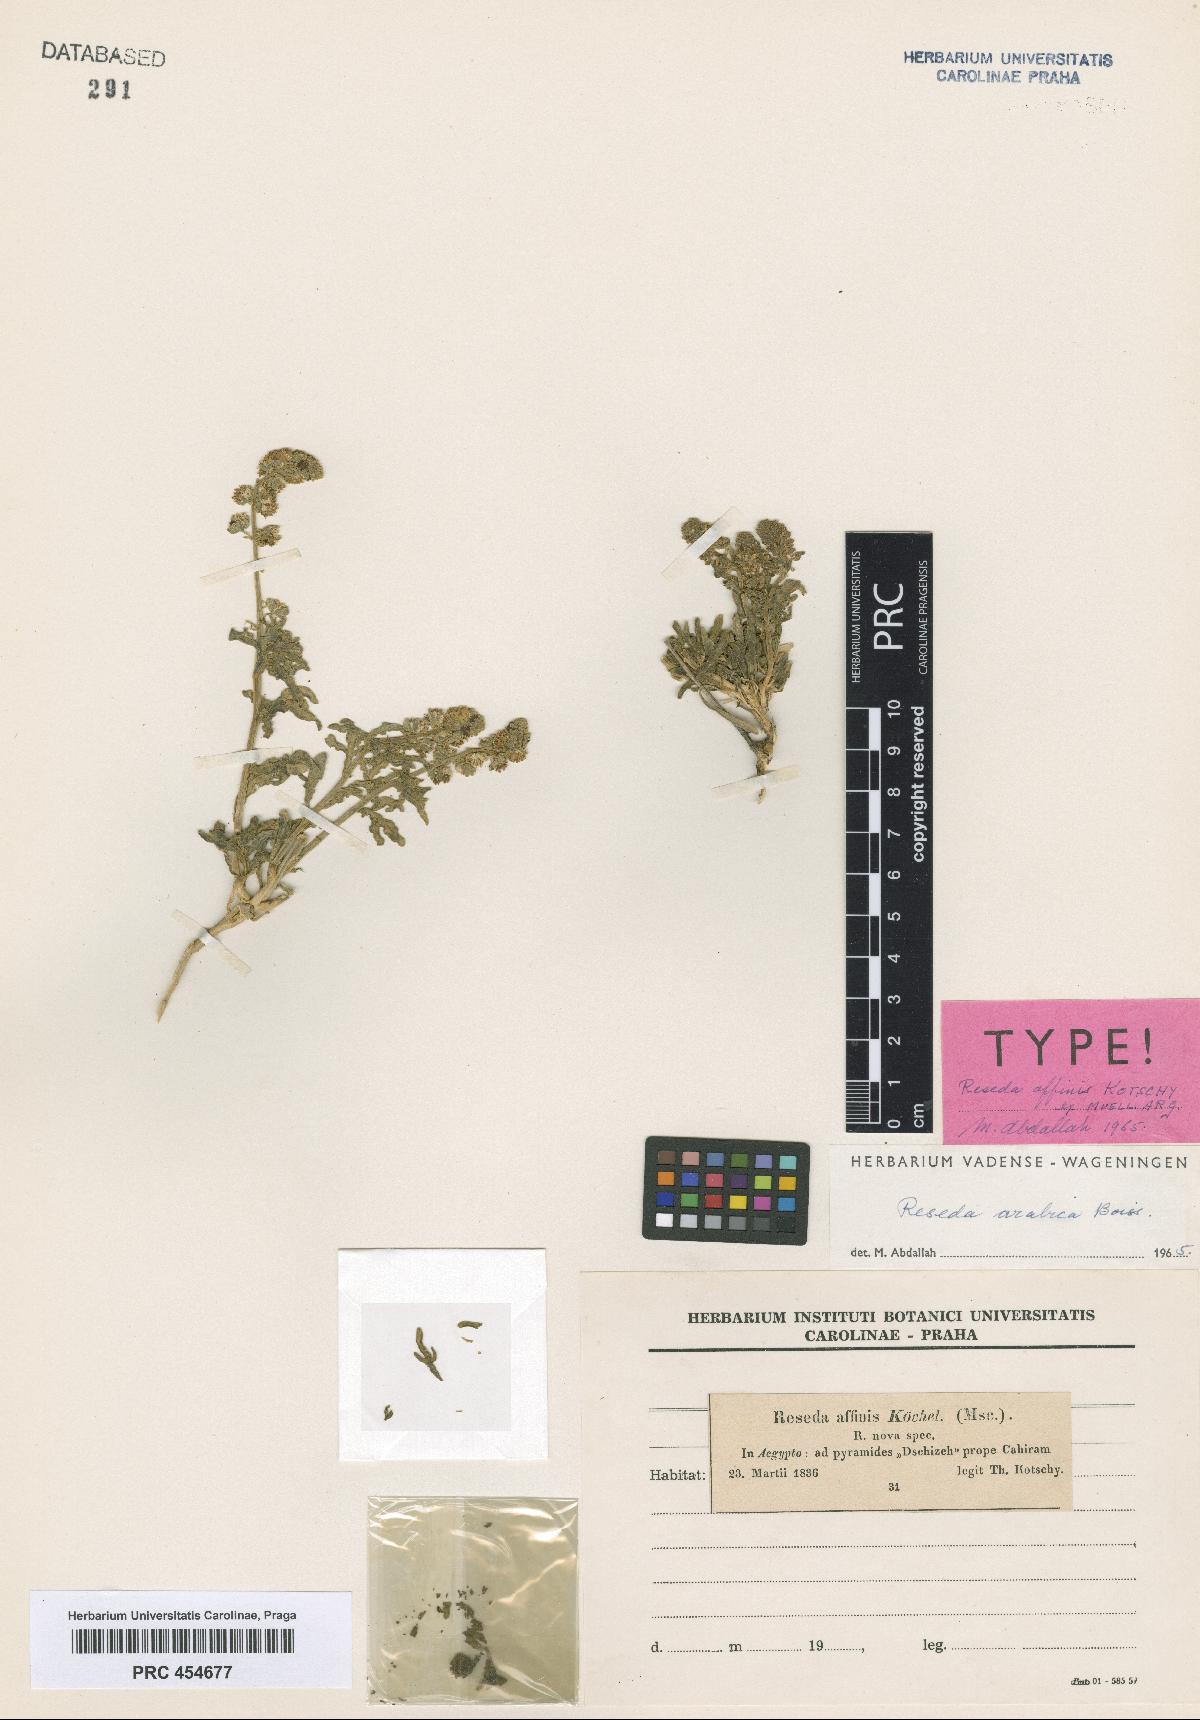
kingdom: Plantae
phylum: Tracheophyta
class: Magnoliopsida
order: Brassicales
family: Resedaceae
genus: Reseda
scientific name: Reseda arabica
